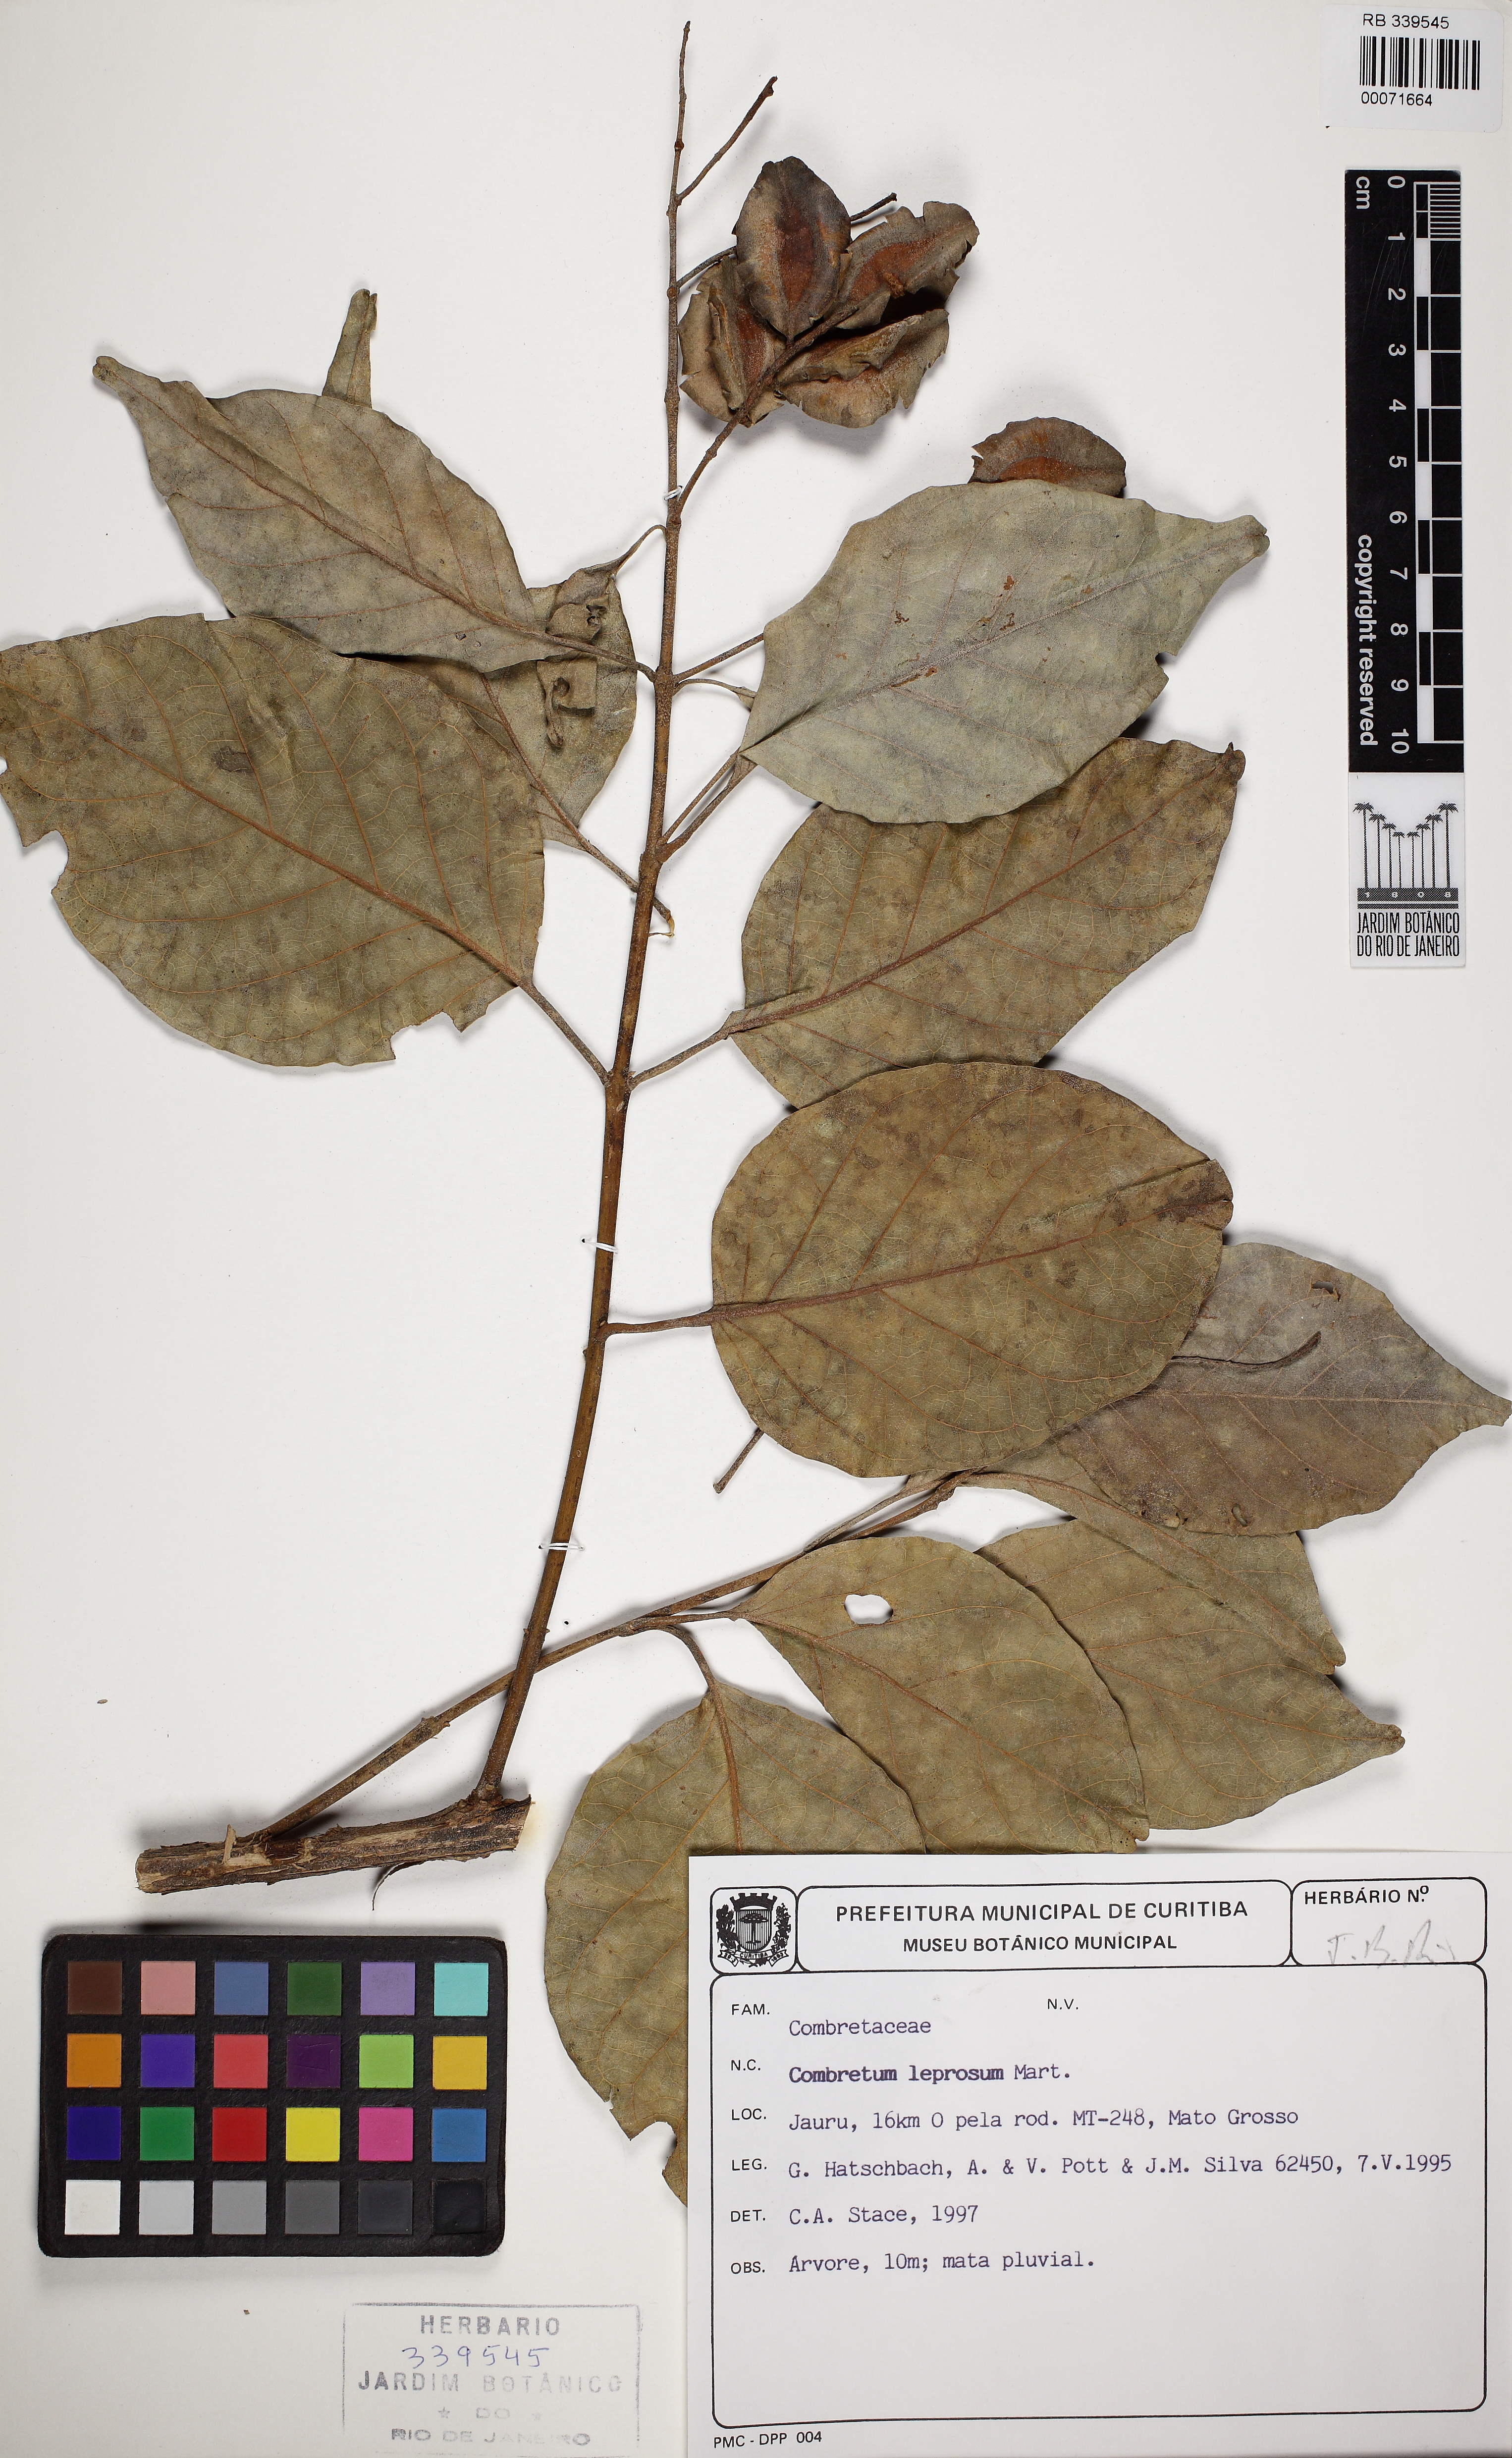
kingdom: Plantae
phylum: Tracheophyta
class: Magnoliopsida
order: Myrtales
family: Combretaceae
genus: Combretum
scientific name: Combretum leprosum
